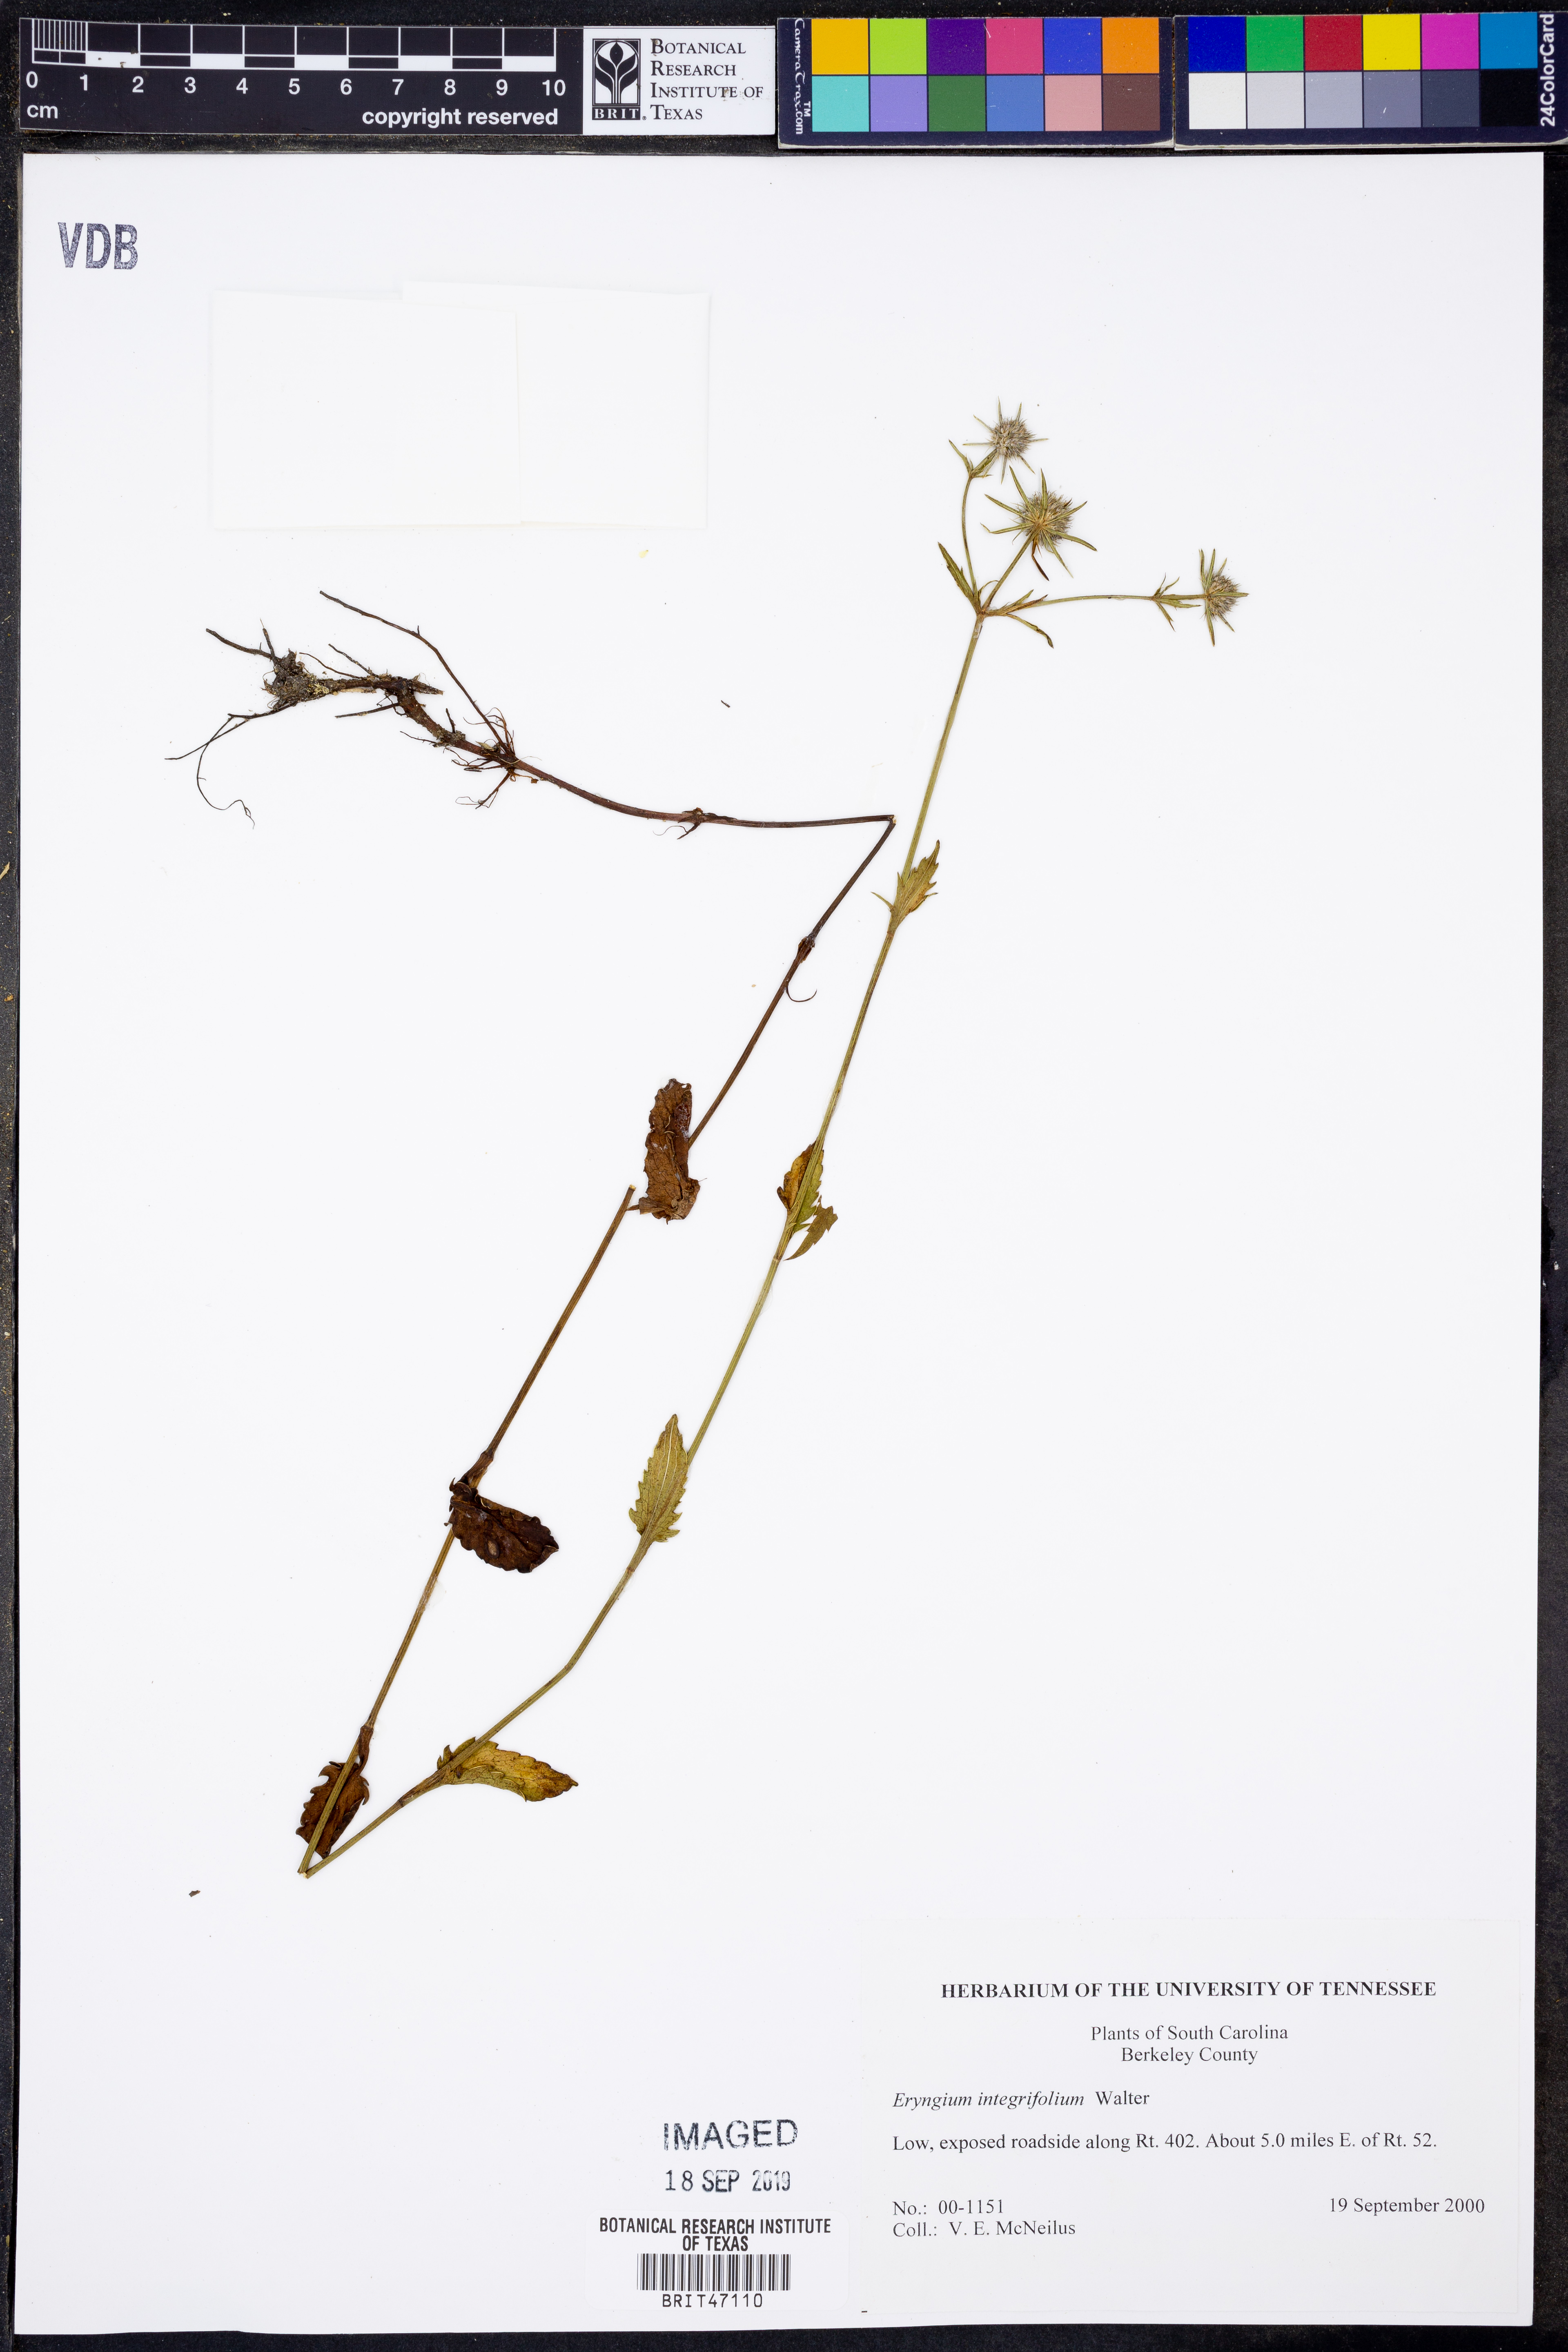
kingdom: Plantae
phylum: Tracheophyta
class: Magnoliopsida
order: Apiales
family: Apiaceae
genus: Eryngium
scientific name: Eryngium integrifolium
